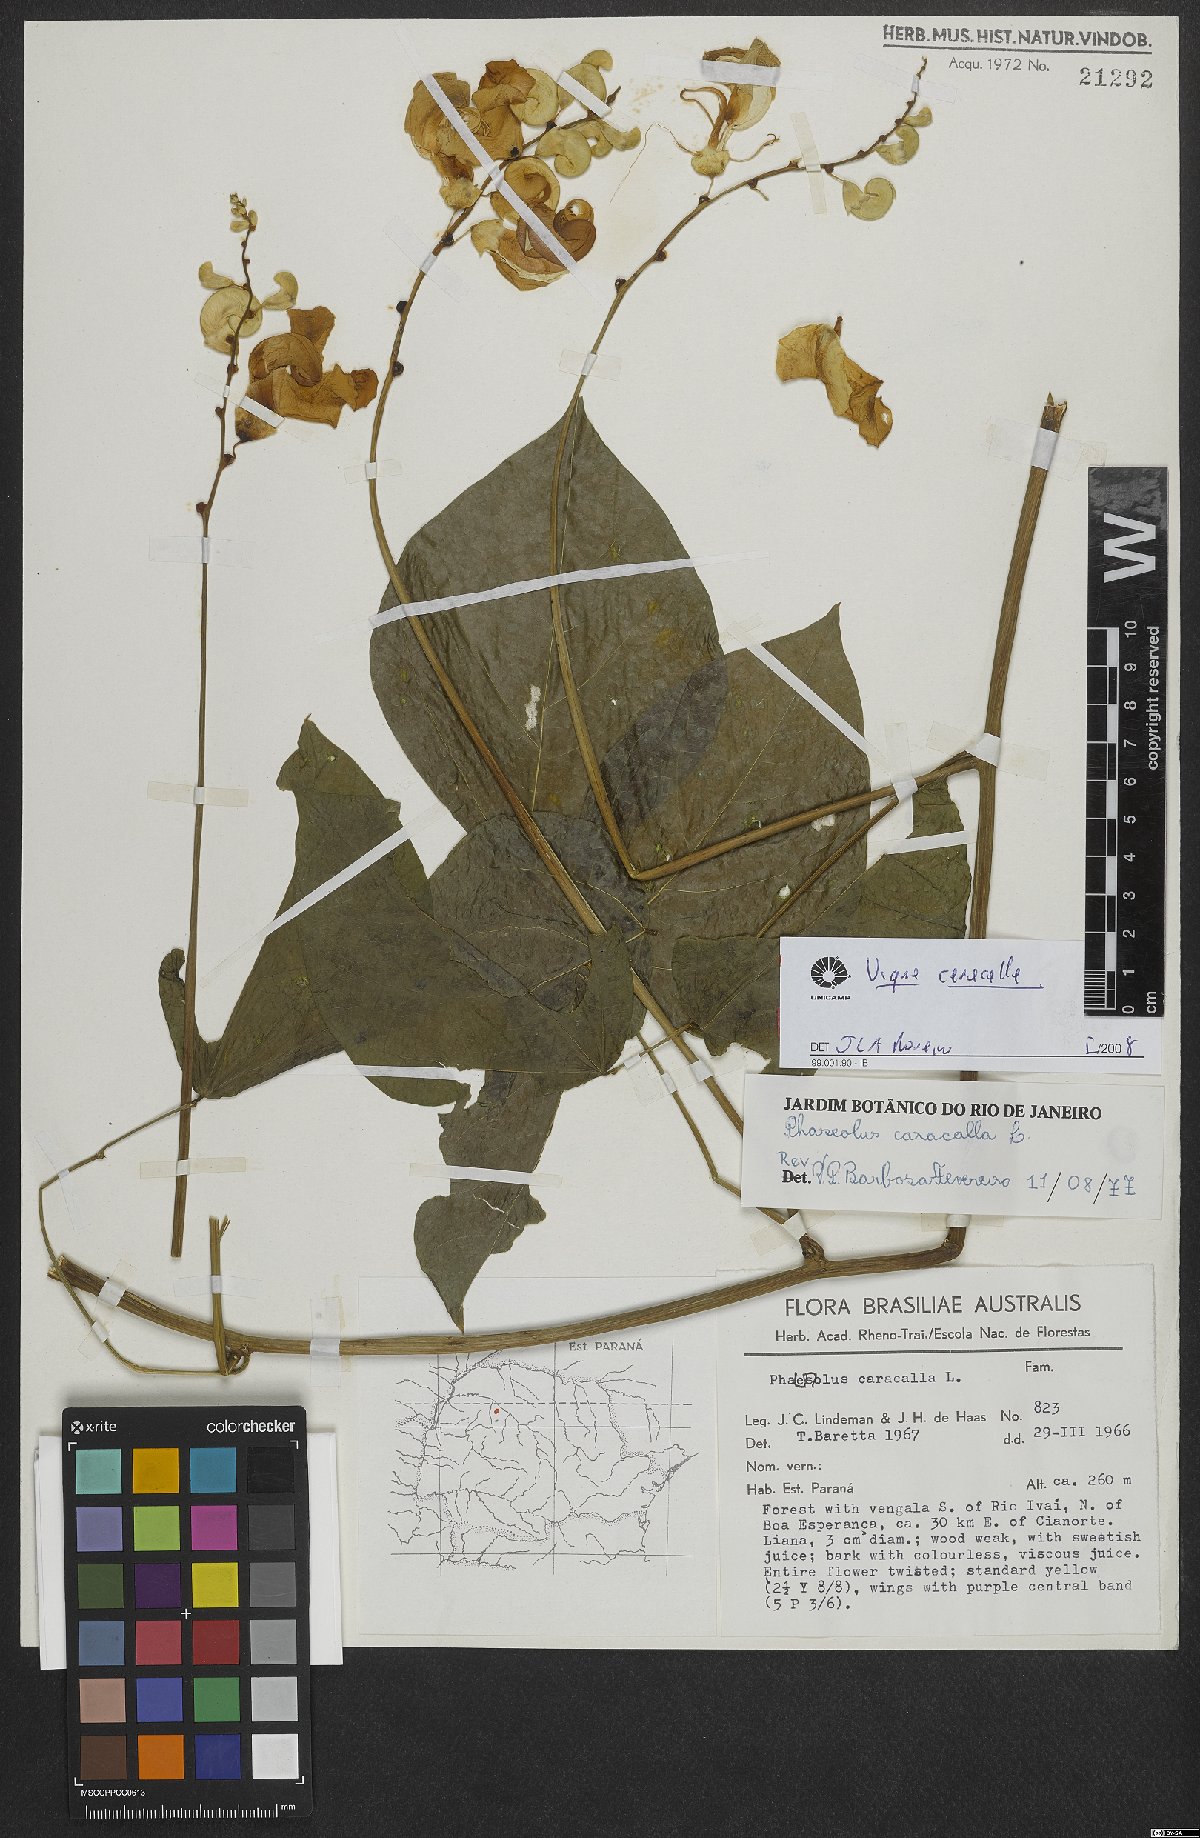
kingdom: Plantae
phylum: Tracheophyta
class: Magnoliopsida
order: Fabales
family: Fabaceae
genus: Cochliasanthus
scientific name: Cochliasanthus caracalla
